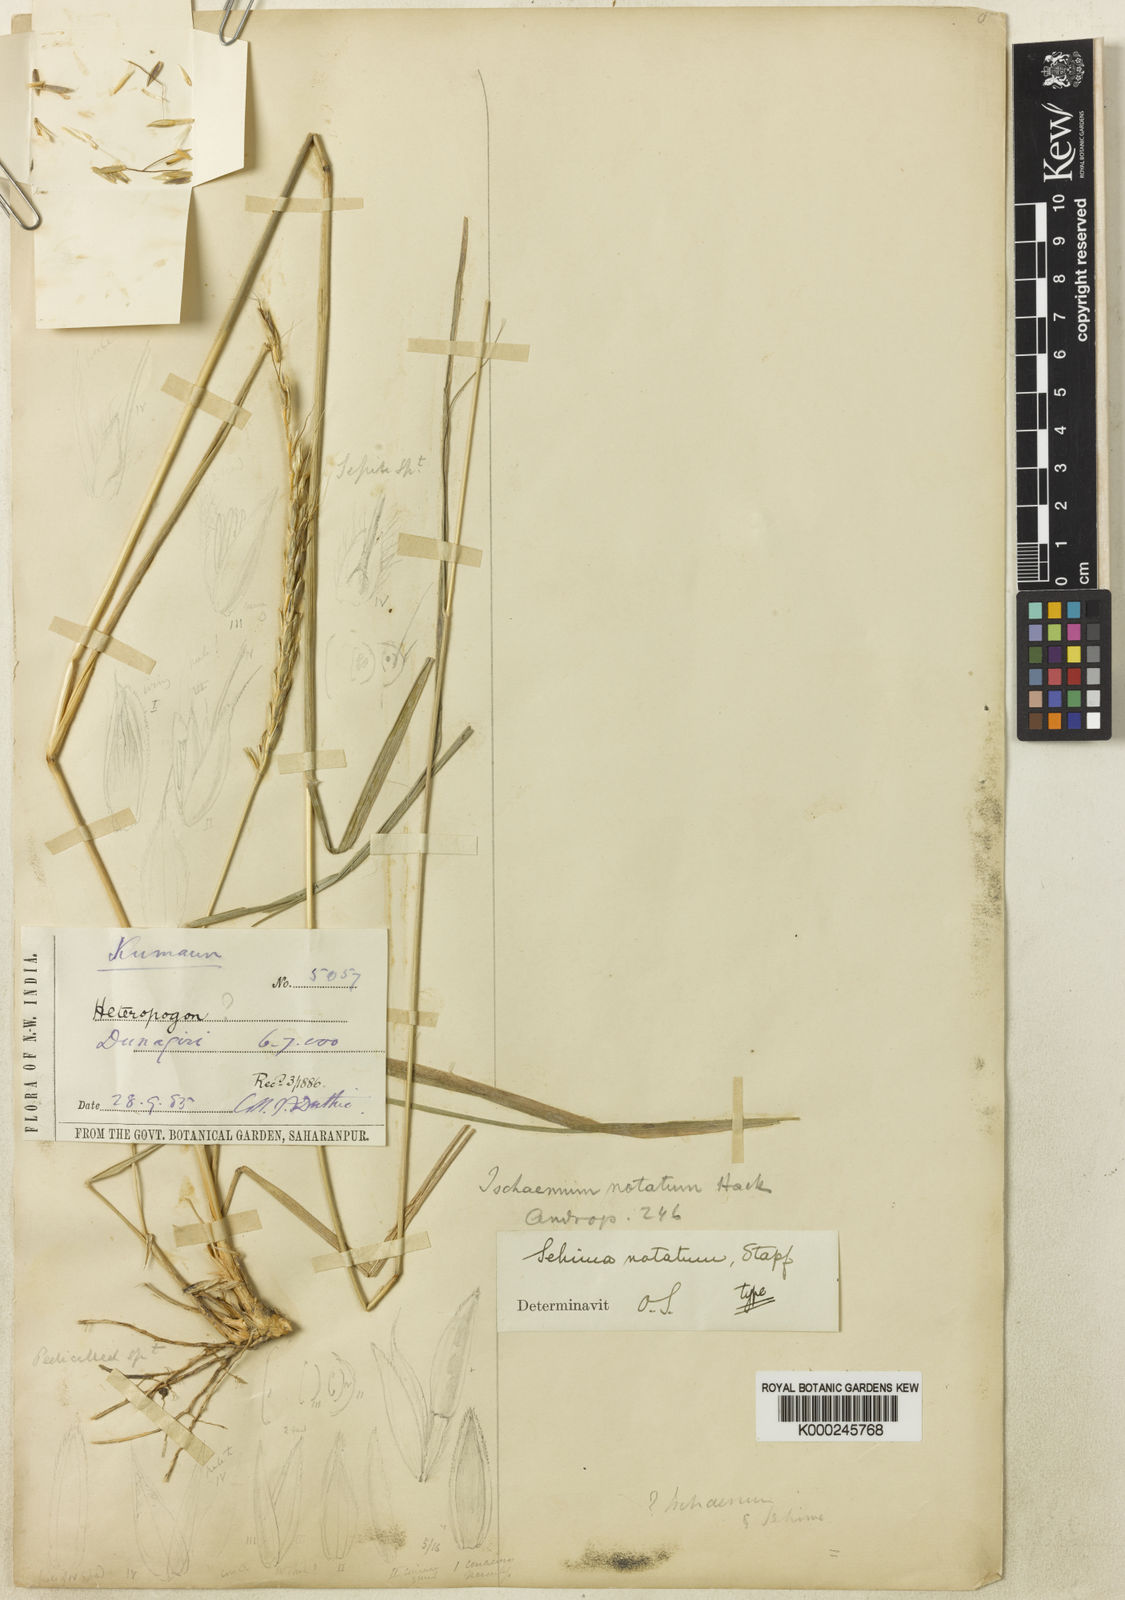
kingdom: Plantae
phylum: Tracheophyta
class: Liliopsida
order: Poales
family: Poaceae
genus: Sehima
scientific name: Sehima notata
